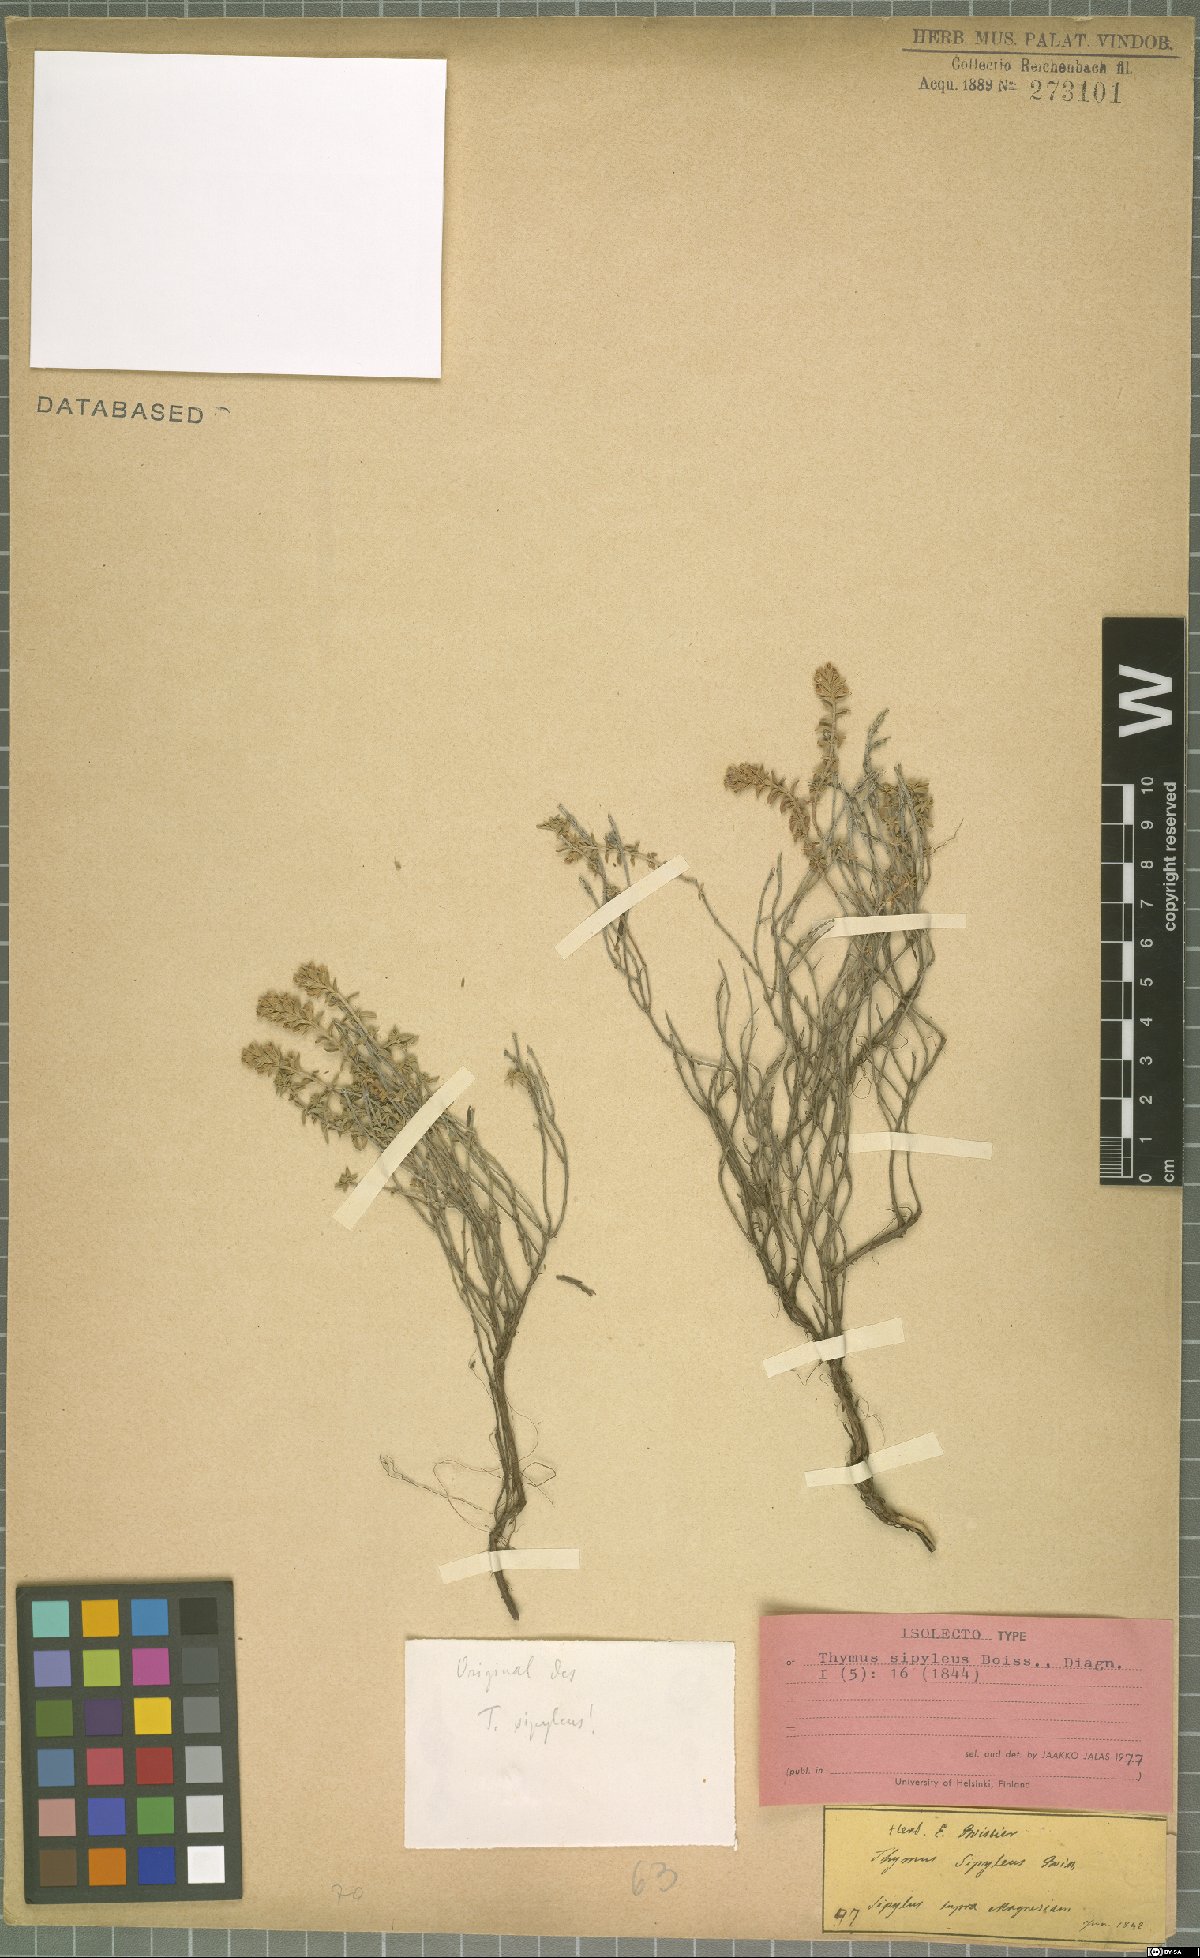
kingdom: Plantae
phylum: Tracheophyta
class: Magnoliopsida
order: Lamiales
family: Lamiaceae
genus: Thymus
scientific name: Thymus sipyleus
